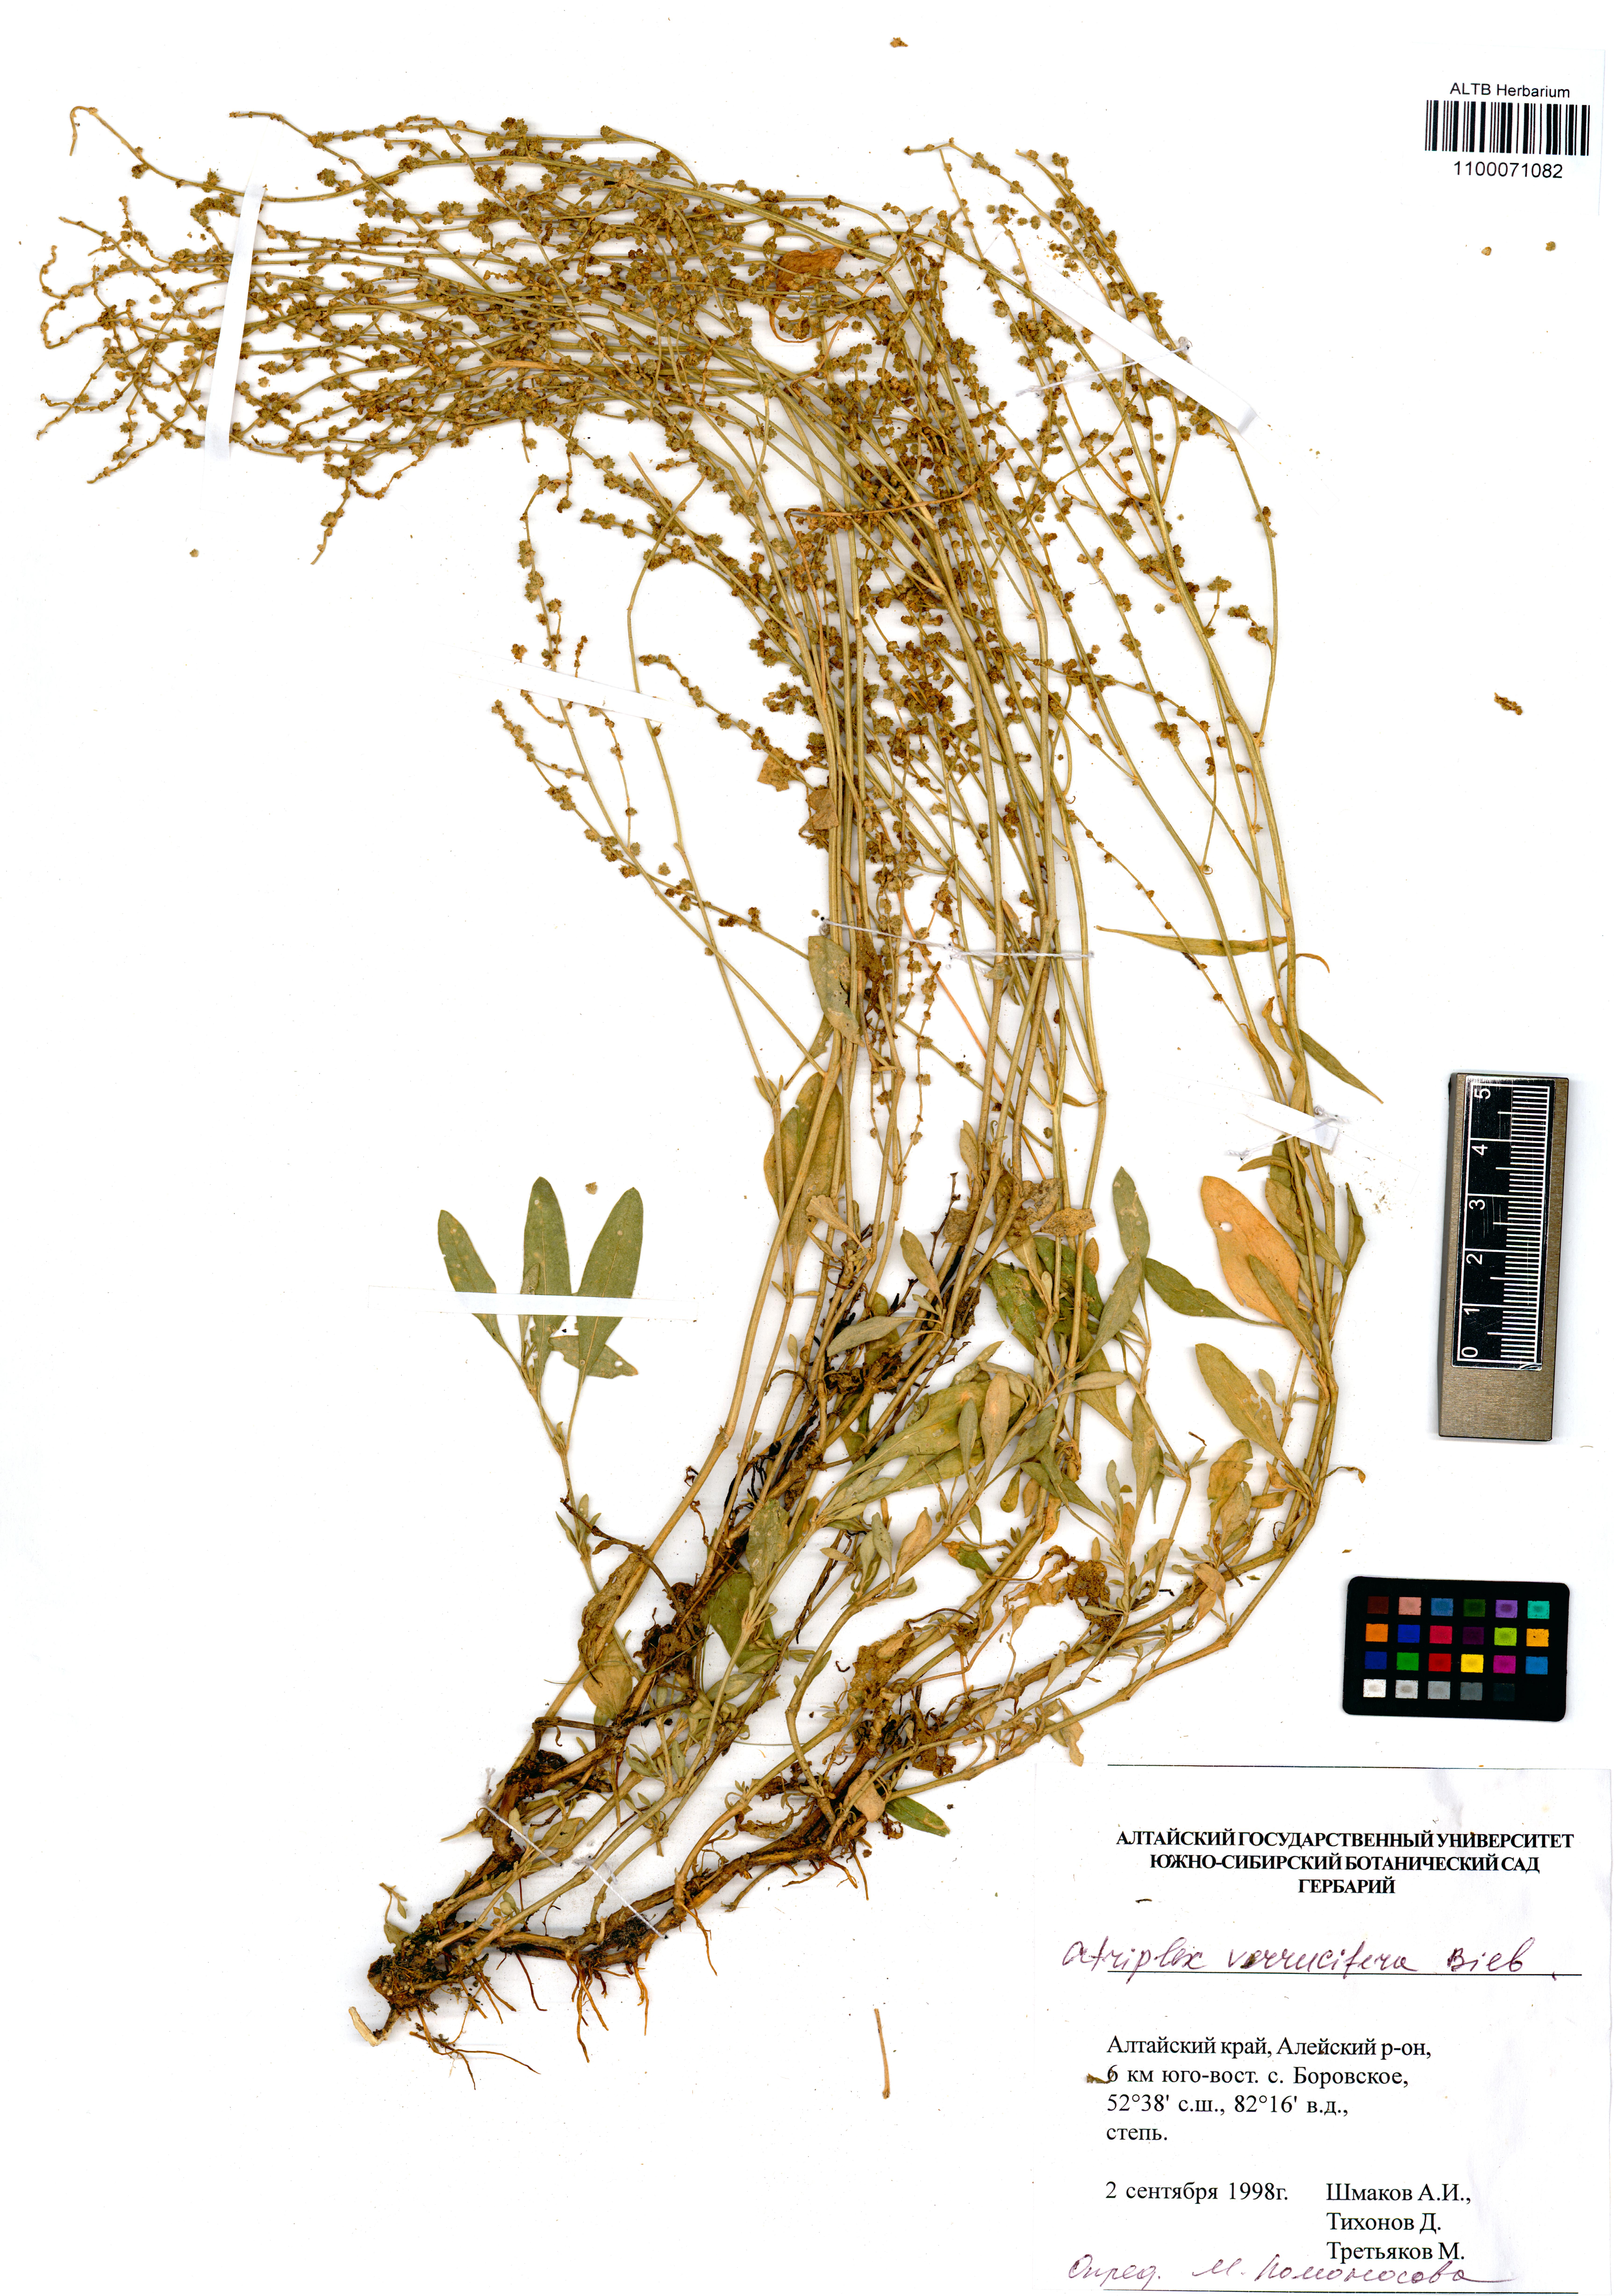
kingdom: Plantae
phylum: Tracheophyta
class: Magnoliopsida
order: Caryophyllales
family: Amaranthaceae
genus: Halimione
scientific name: Halimione verrucifera
